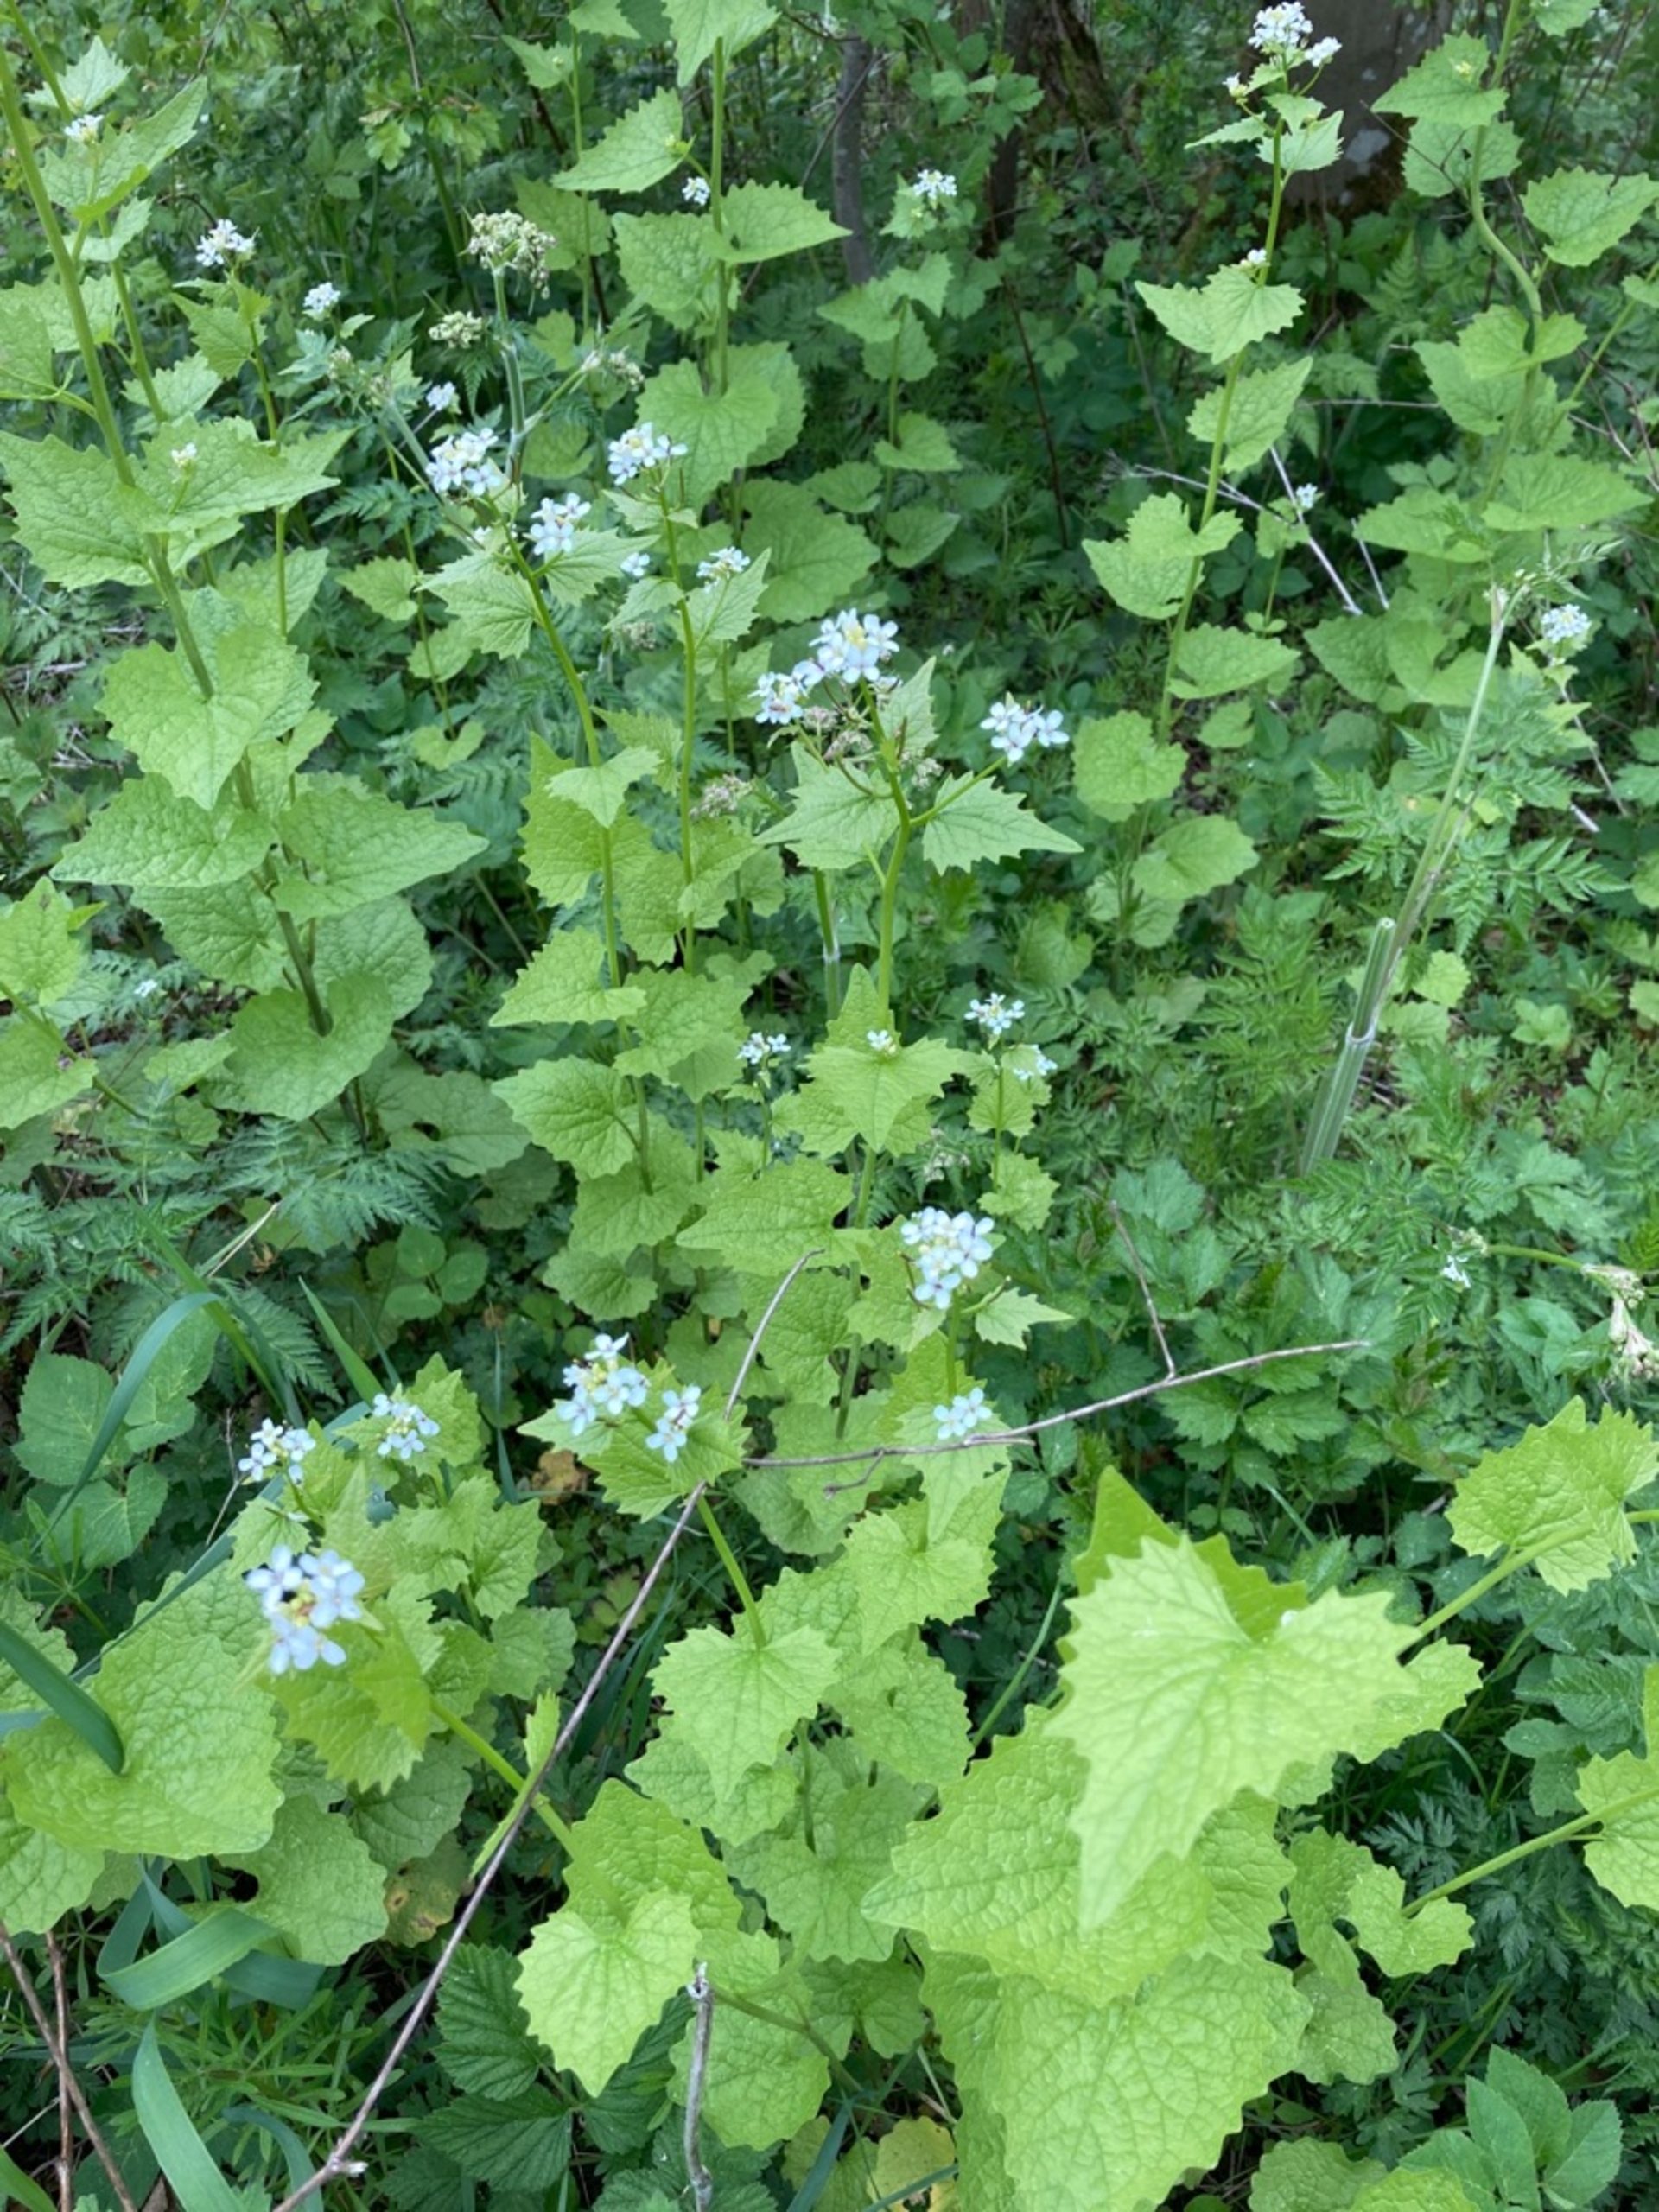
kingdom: Plantae
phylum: Tracheophyta
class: Magnoliopsida
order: Brassicales
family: Brassicaceae
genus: Alliaria
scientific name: Alliaria petiolata
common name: Løgkarse
